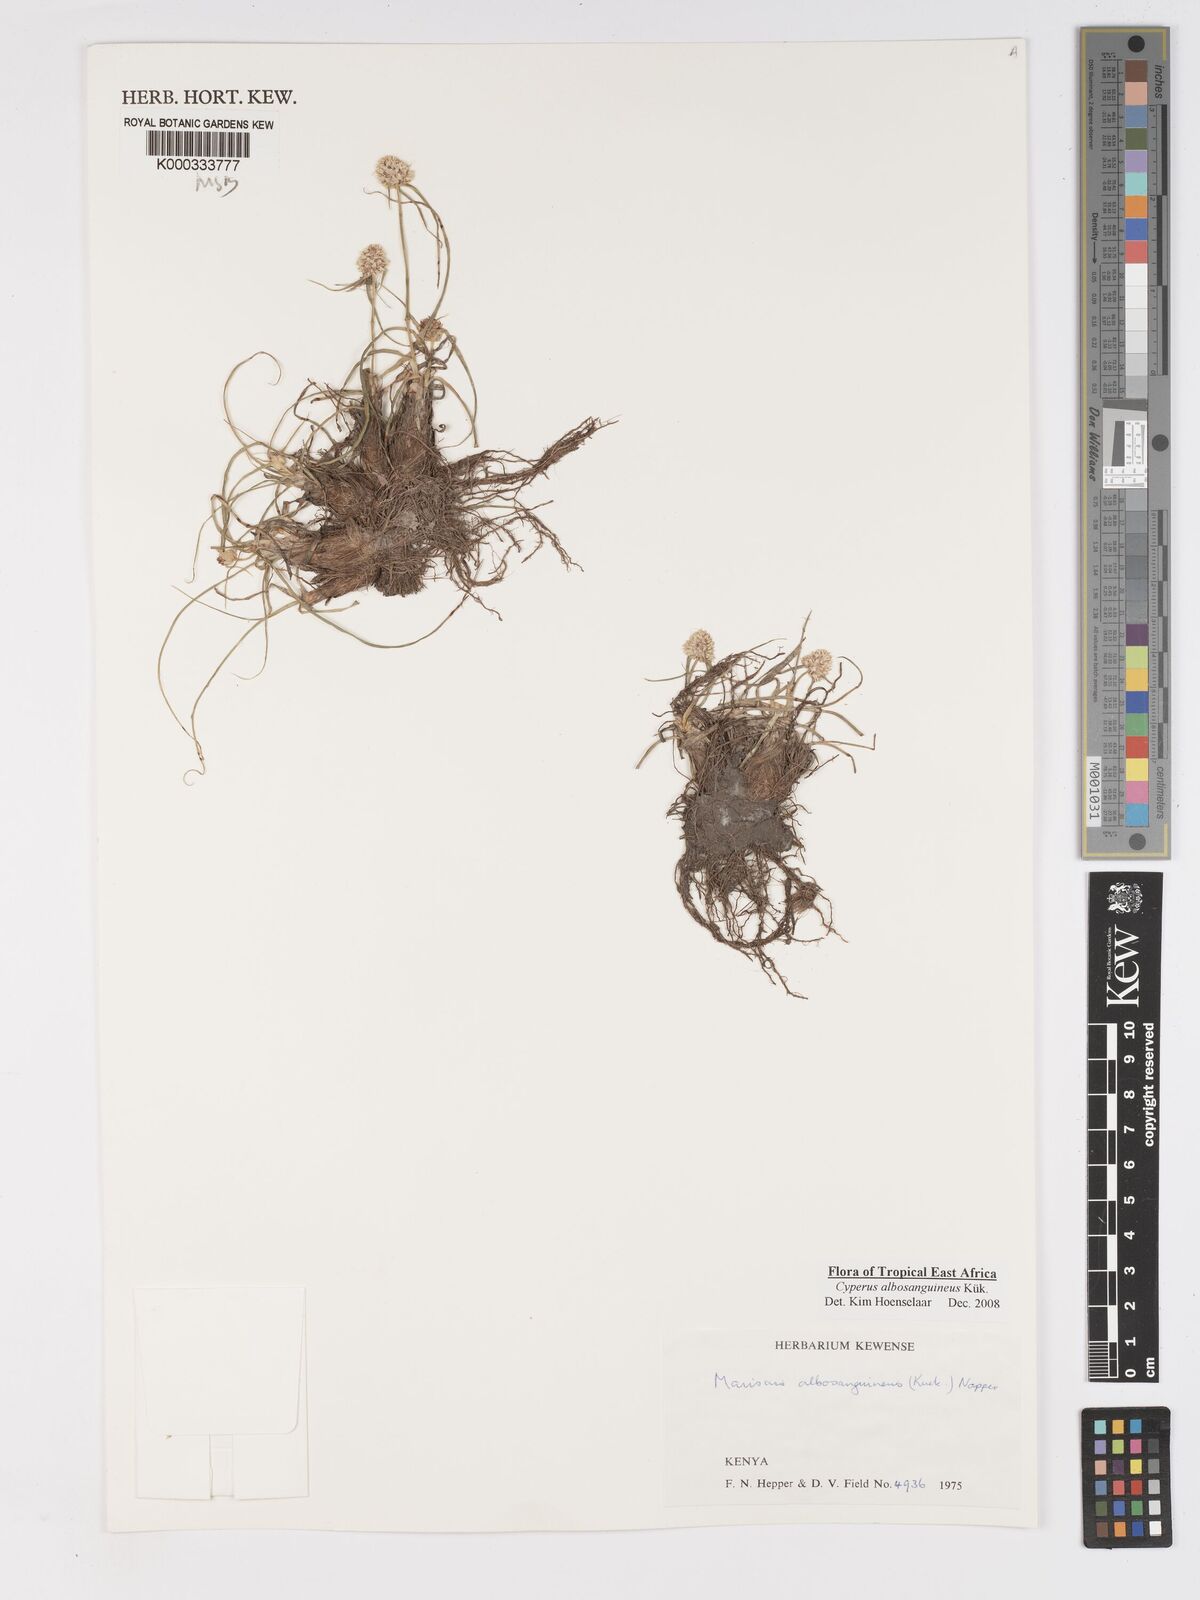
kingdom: Plantae
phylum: Tracheophyta
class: Liliopsida
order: Poales
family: Cyperaceae
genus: Cyperus
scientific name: Cyperus
